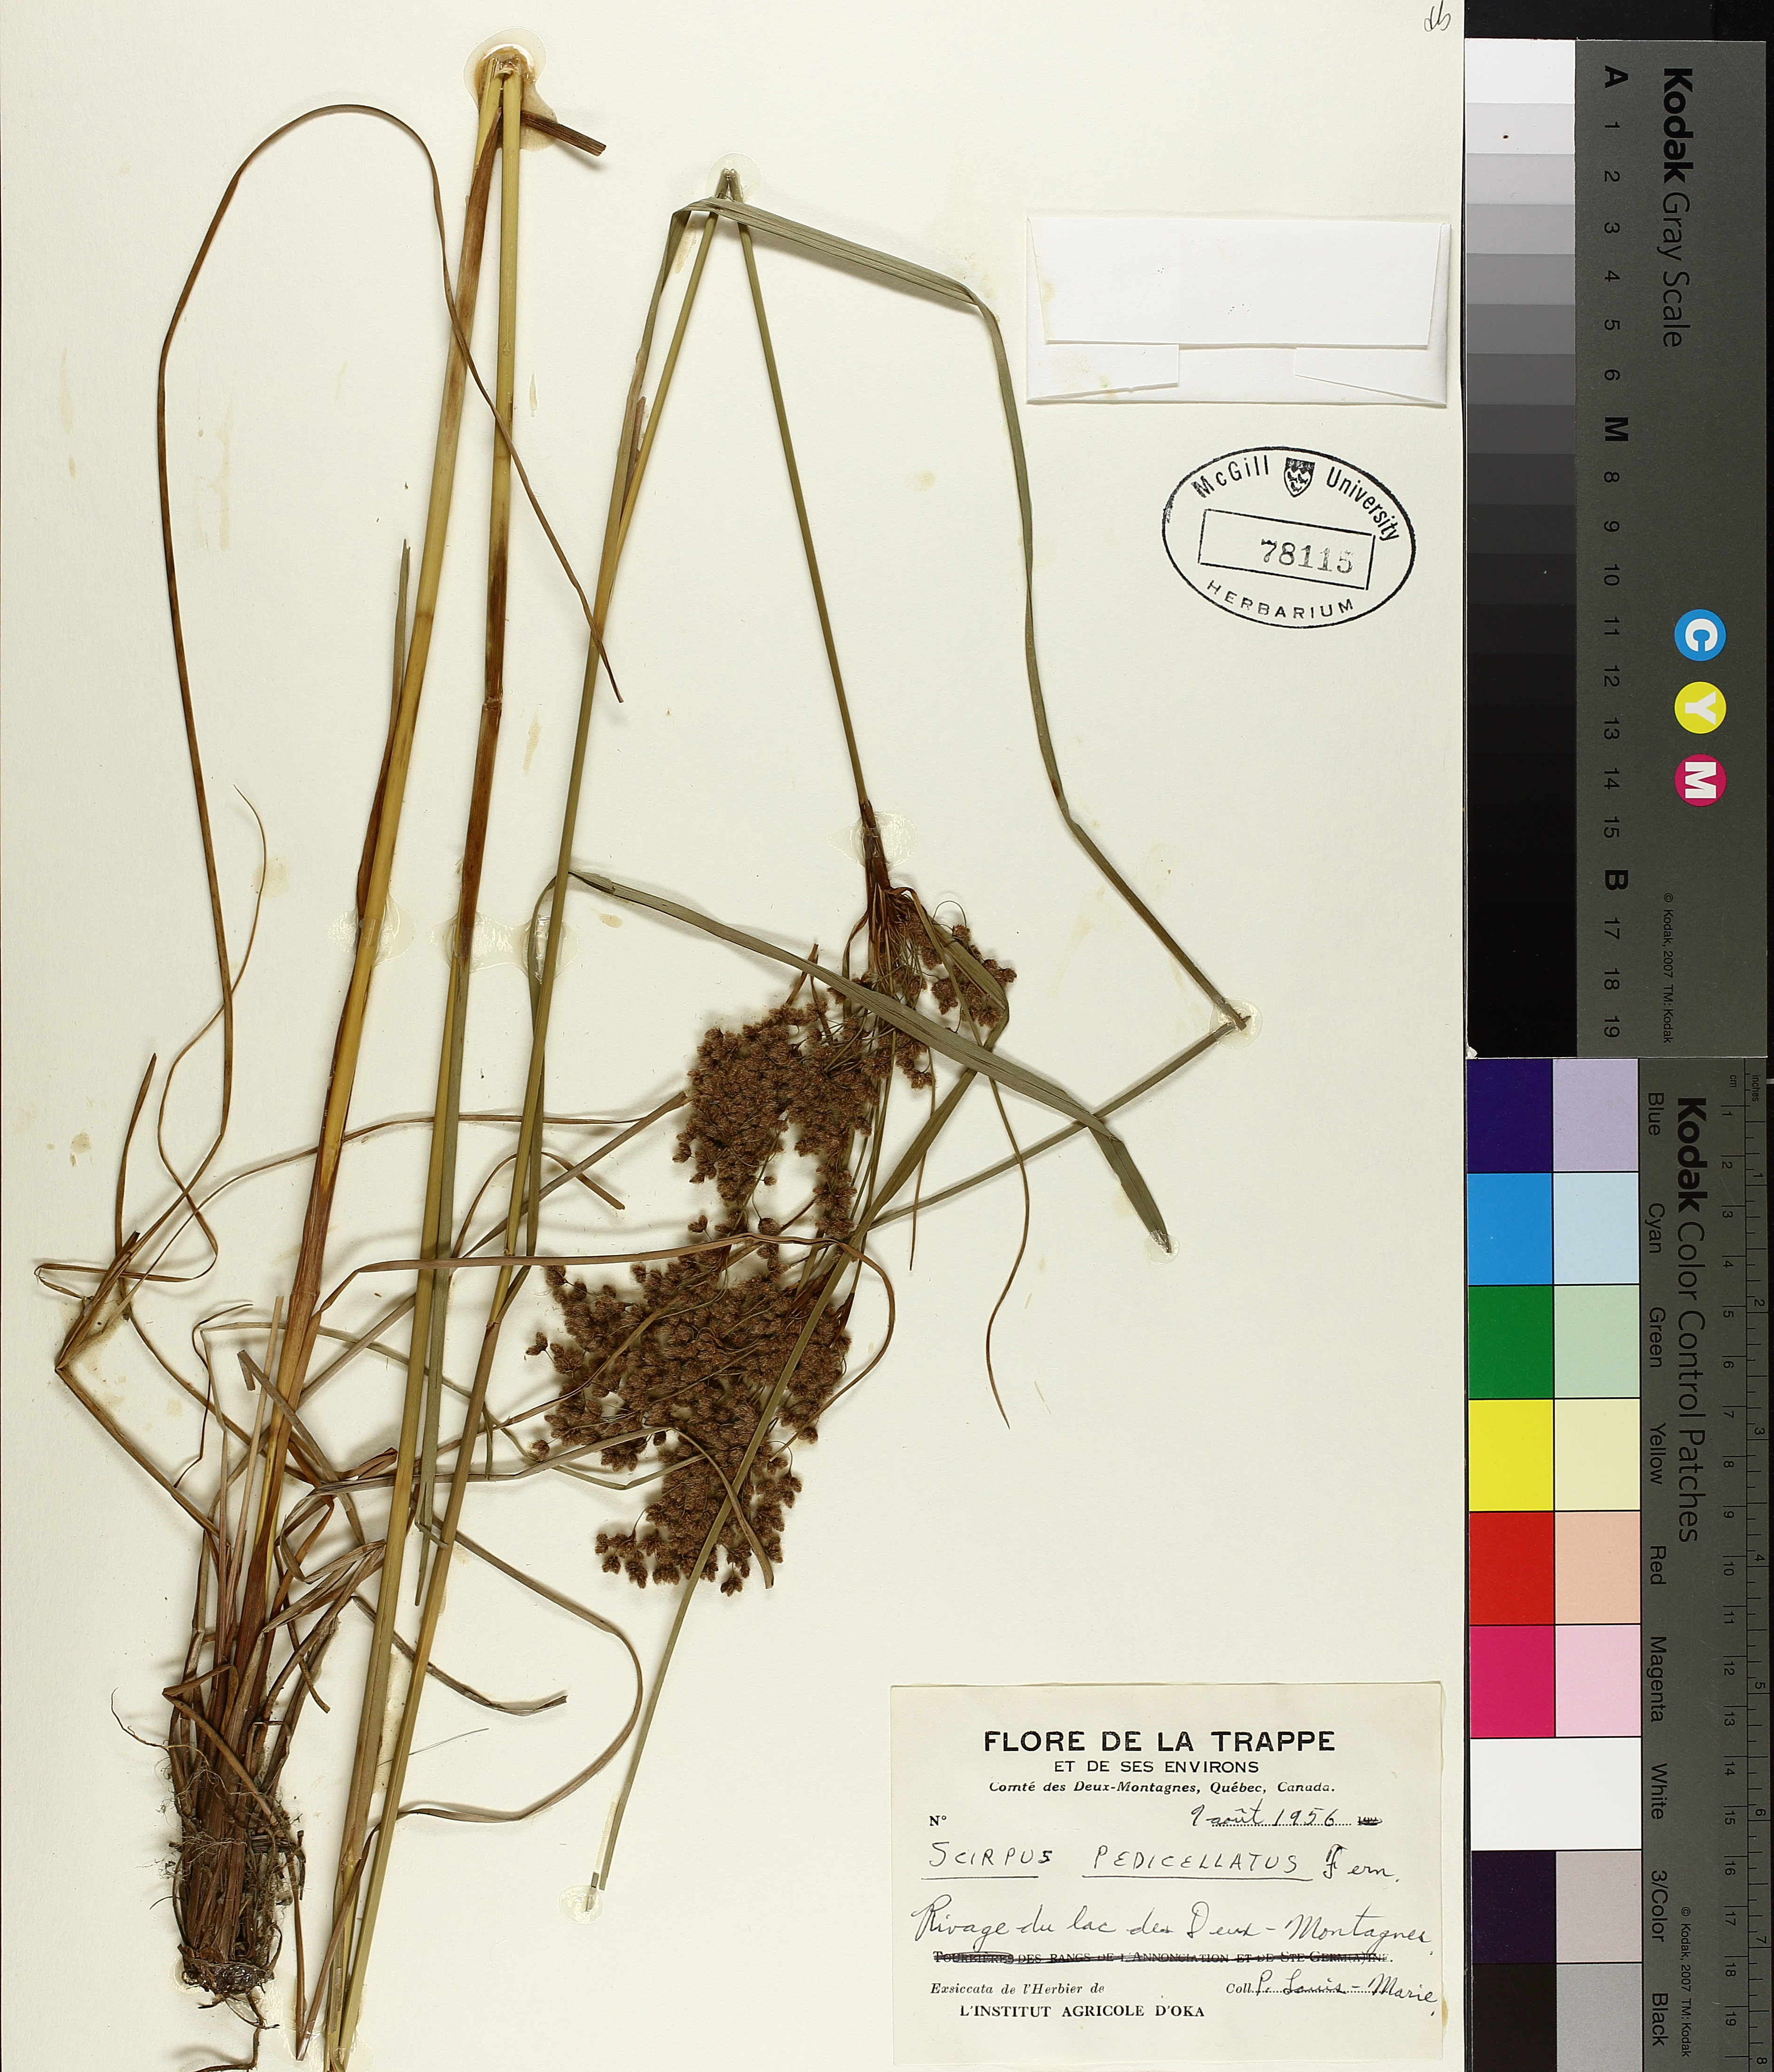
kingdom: Plantae
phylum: Tracheophyta
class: Liliopsida
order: Poales
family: Cyperaceae
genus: Scirpus
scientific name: Scirpus pedicellatus
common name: Pedicelled bulrush
